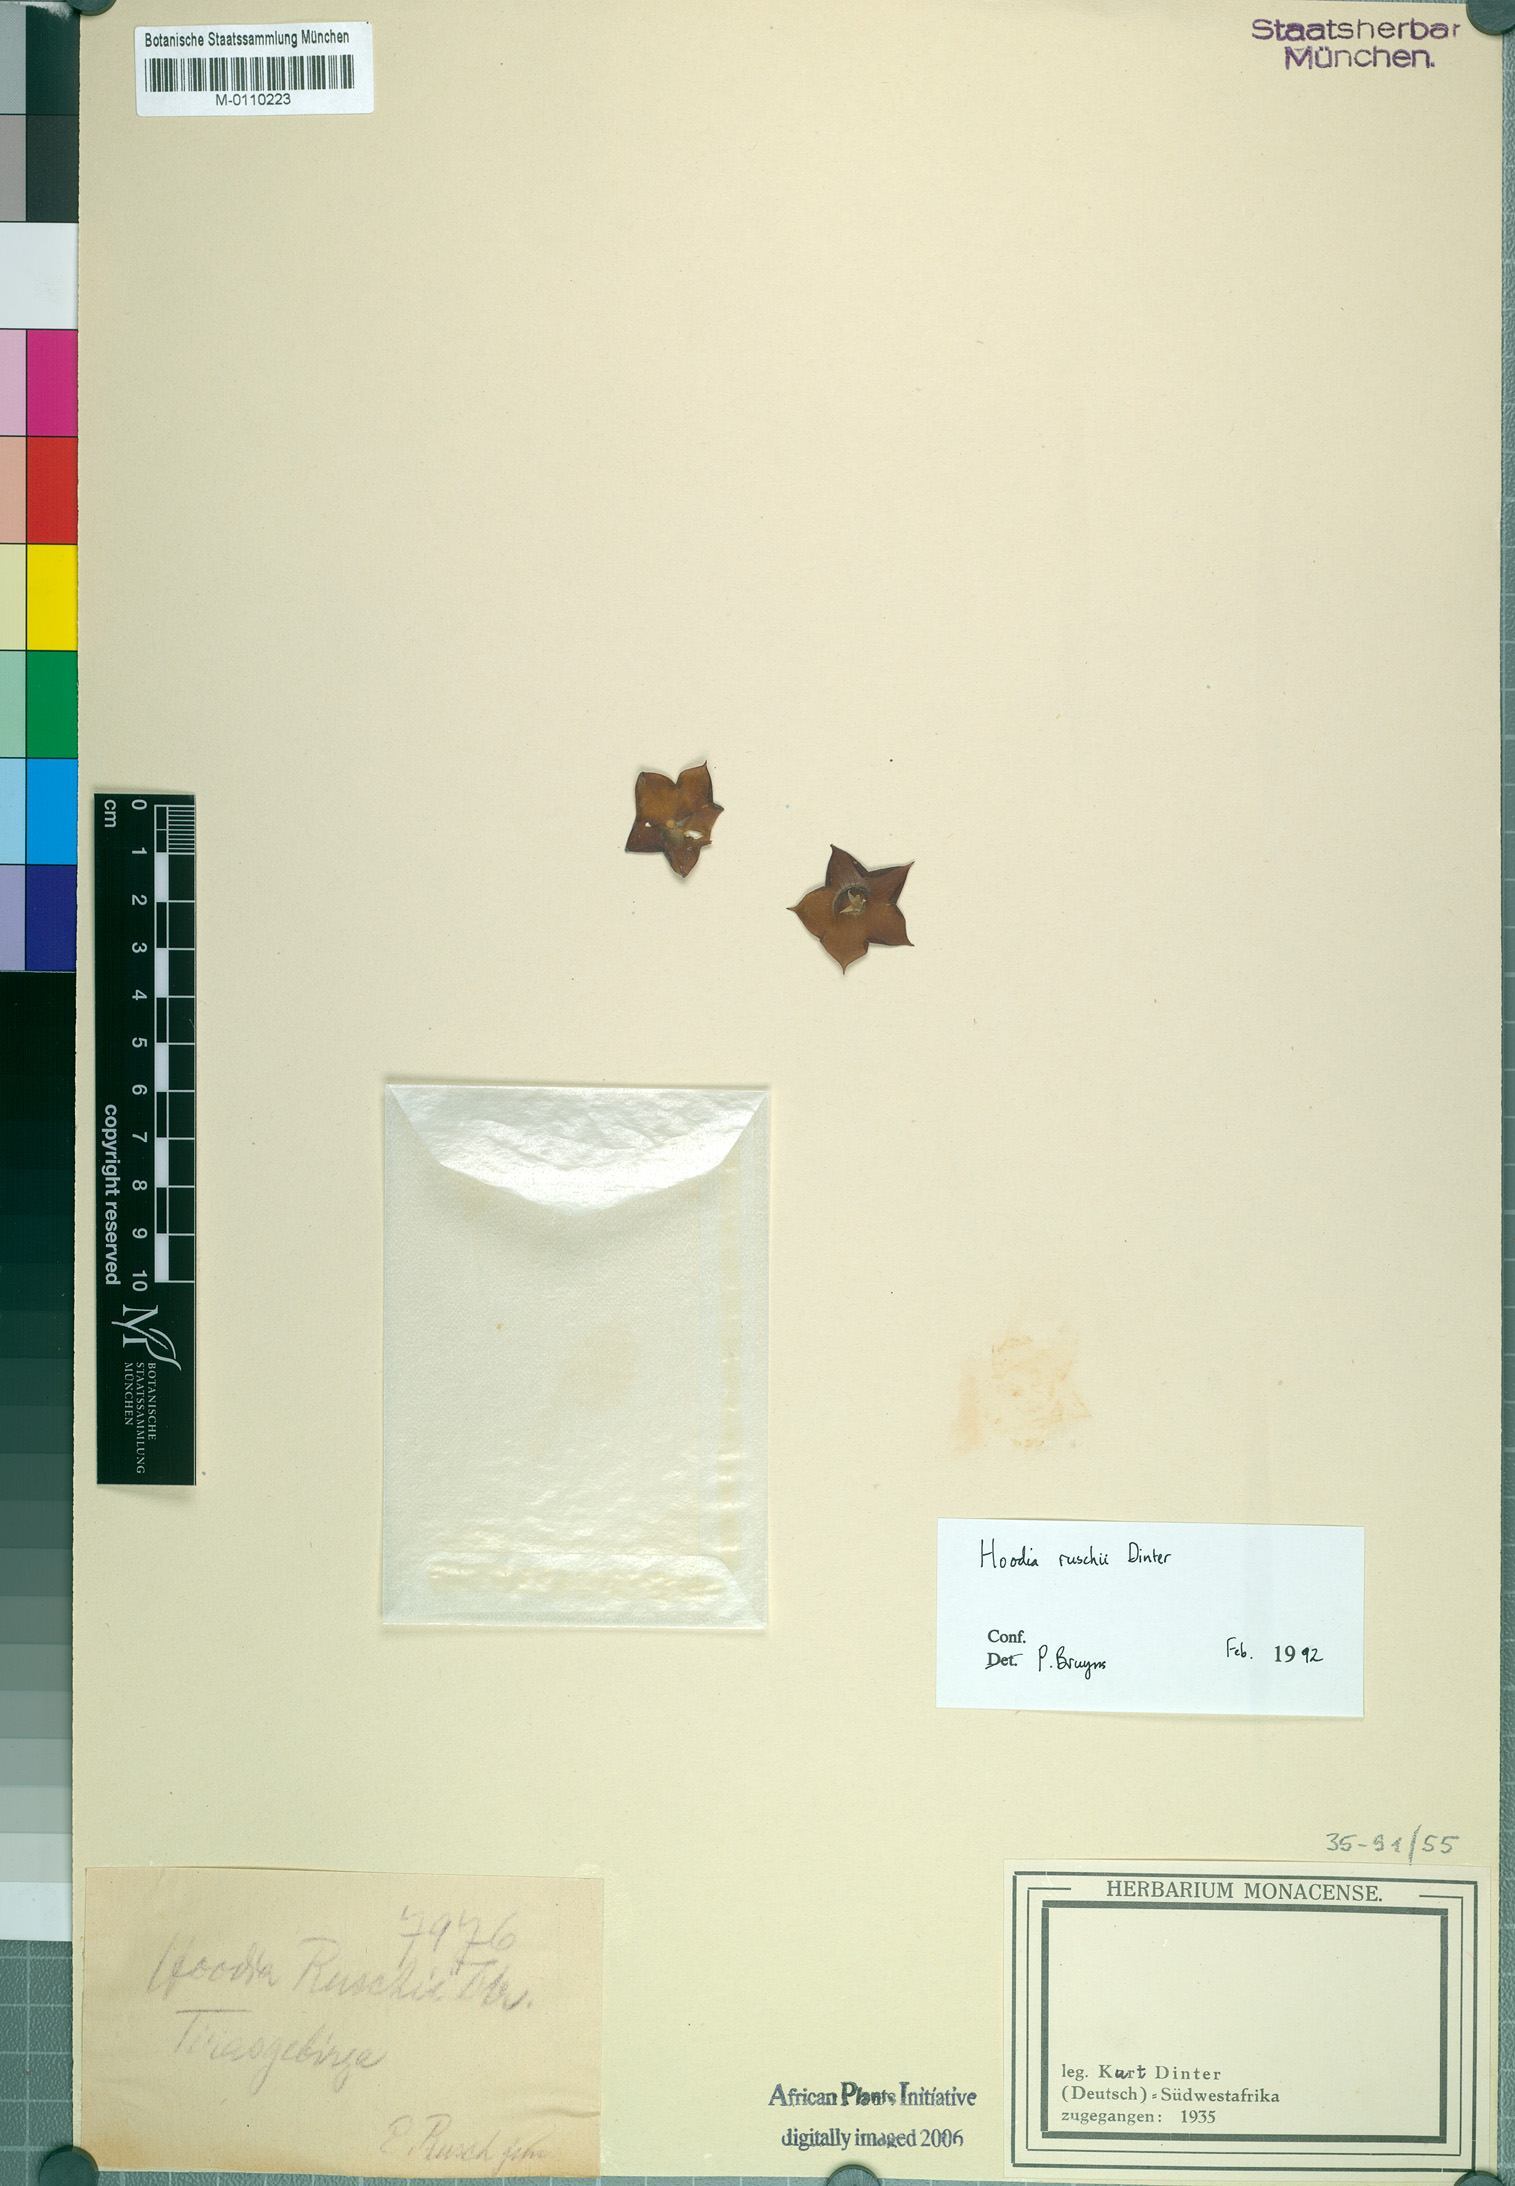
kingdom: Plantae
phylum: Tracheophyta
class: Magnoliopsida
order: Gentianales
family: Apocynaceae
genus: Ceropegia
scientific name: Ceropegia ruschii
